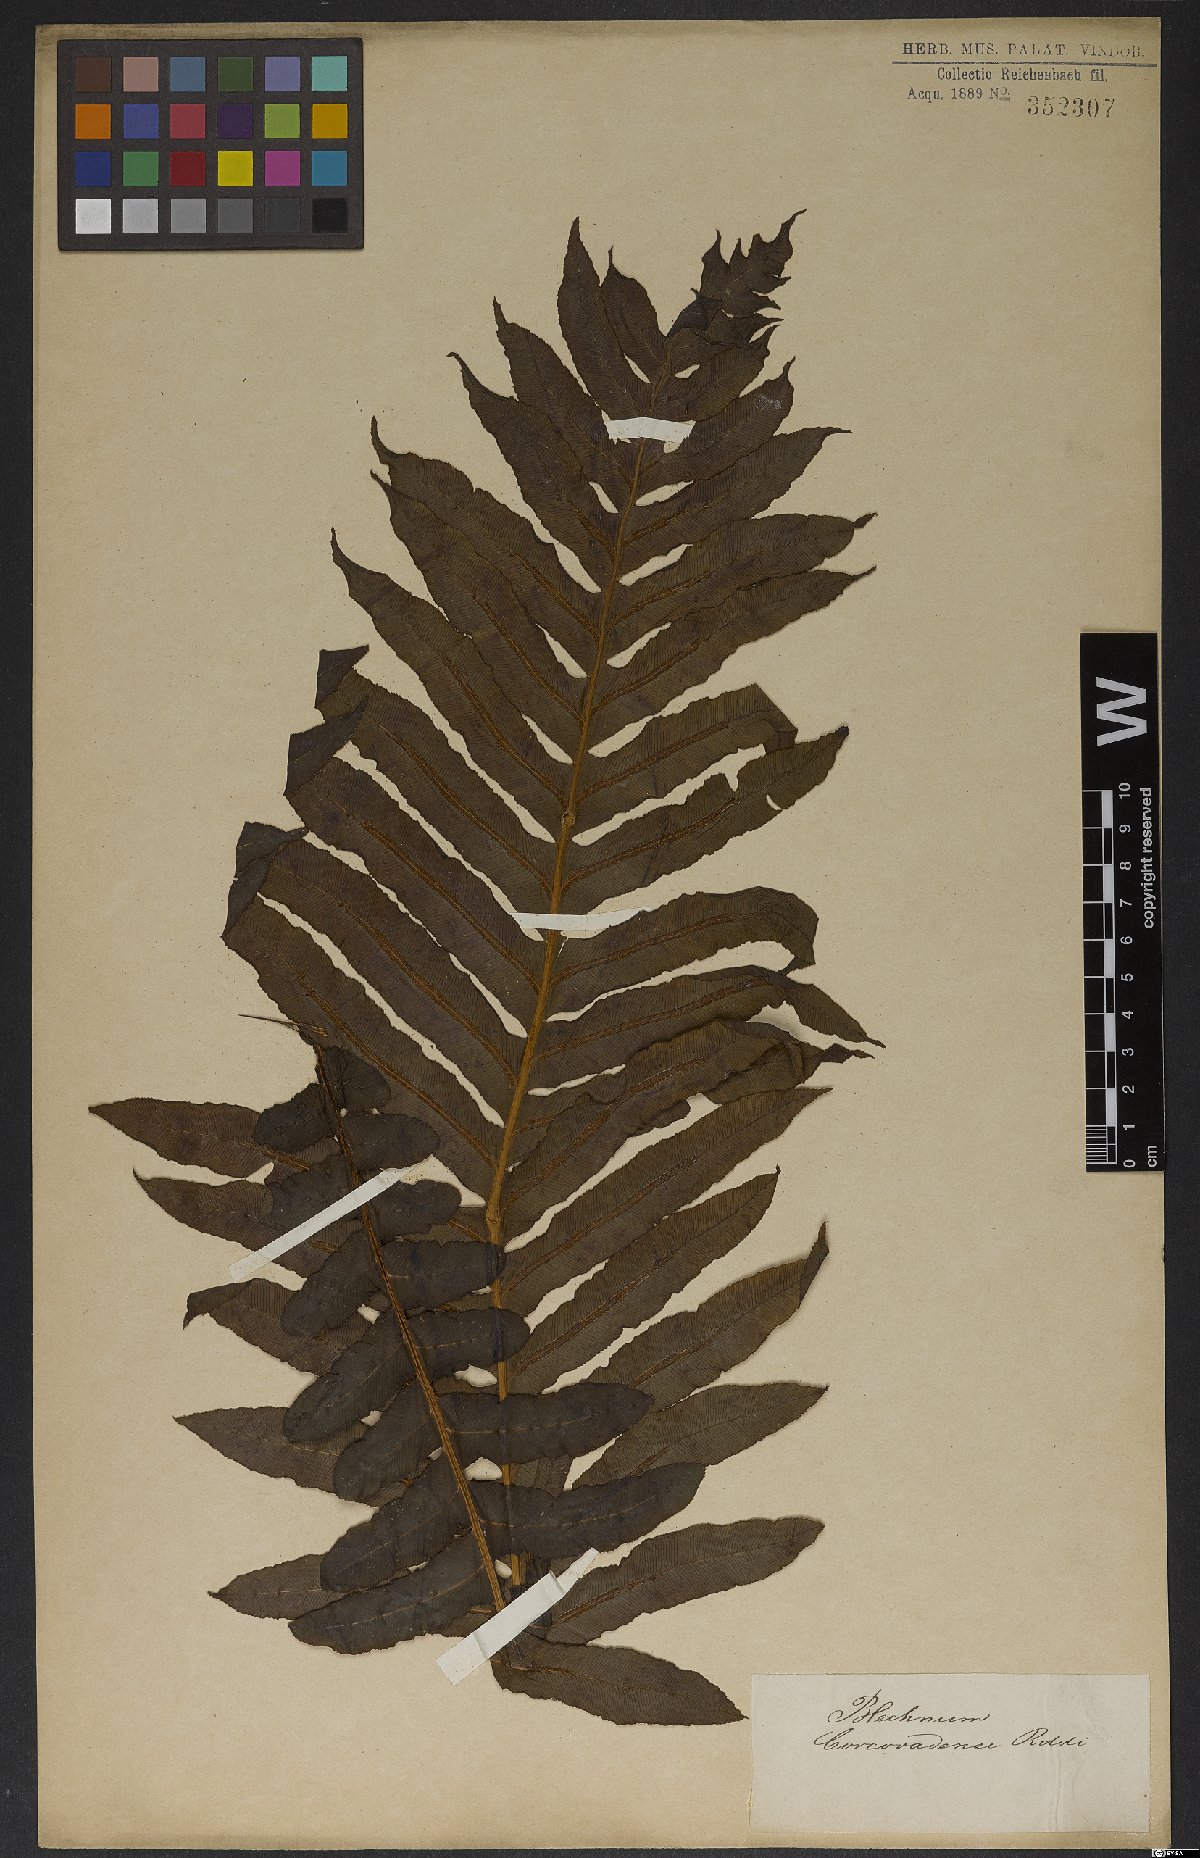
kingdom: Plantae
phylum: Tracheophyta
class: Polypodiopsida
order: Polypodiales
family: Blechnaceae
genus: Neoblechnum
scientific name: Neoblechnum brasiliense
